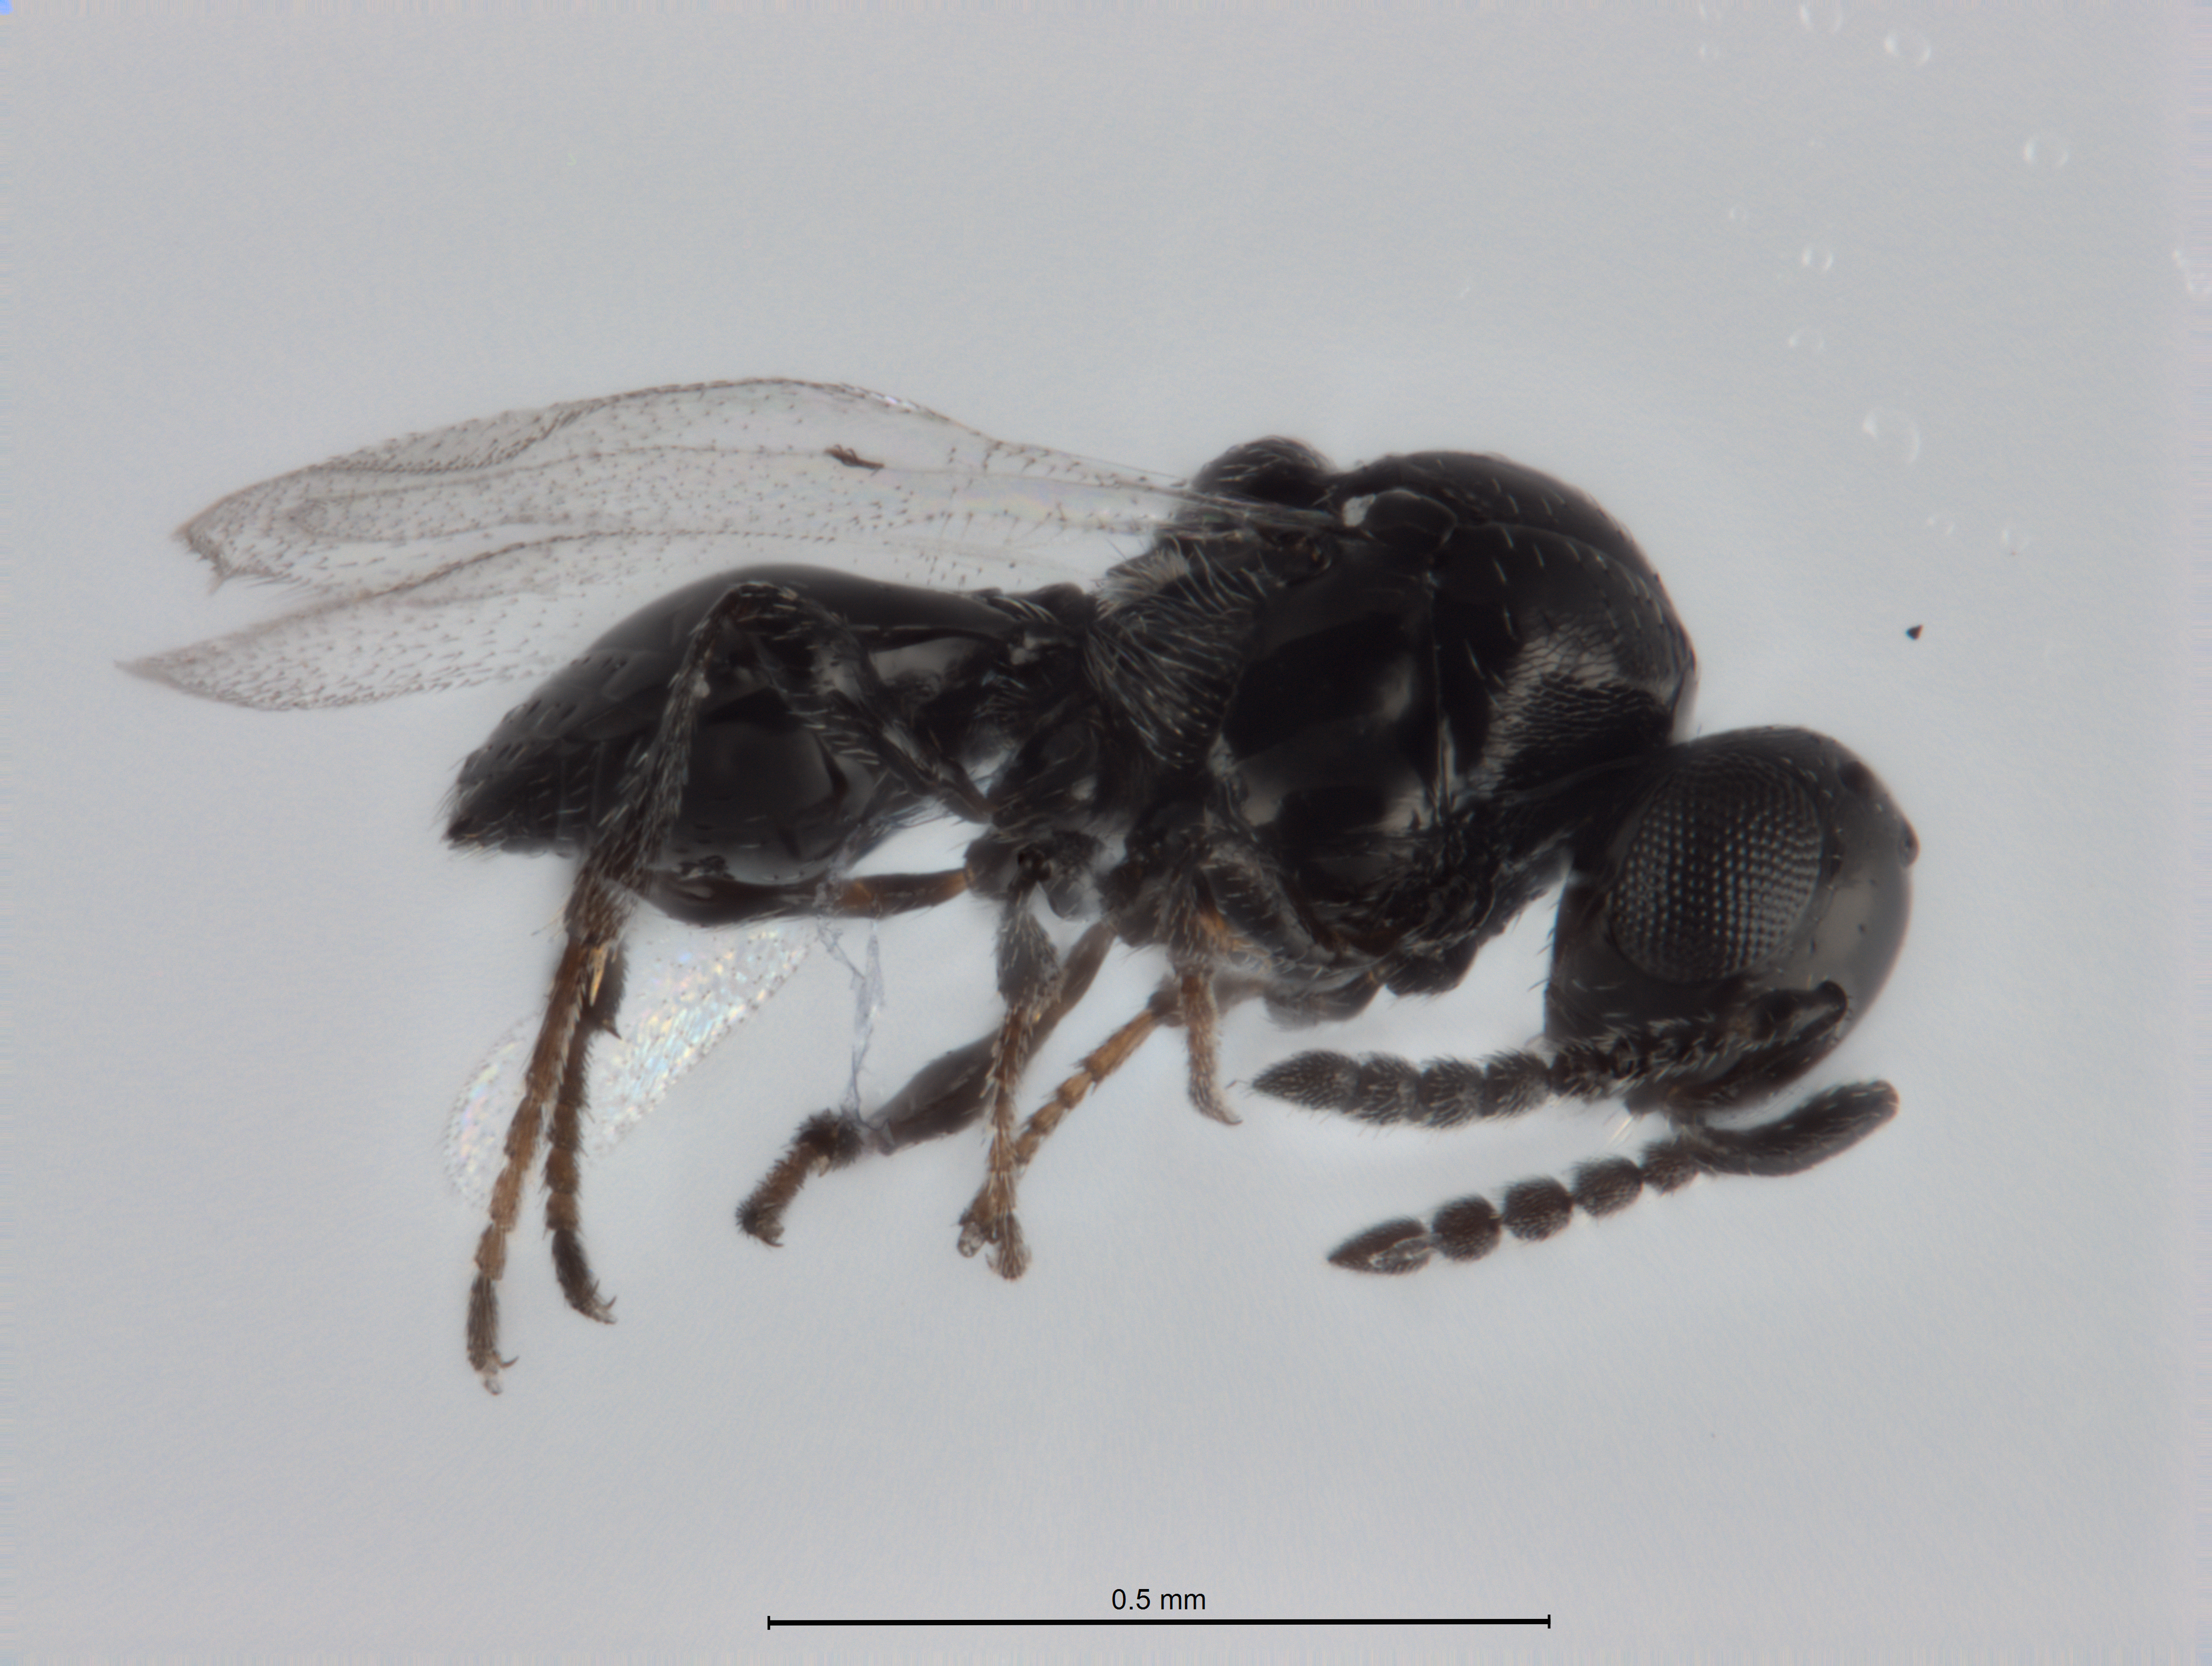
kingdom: Animalia
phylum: Arthropoda
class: Insecta
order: Hymenoptera
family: Platygastridae
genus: Platygaster
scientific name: Platygaster robiniae
